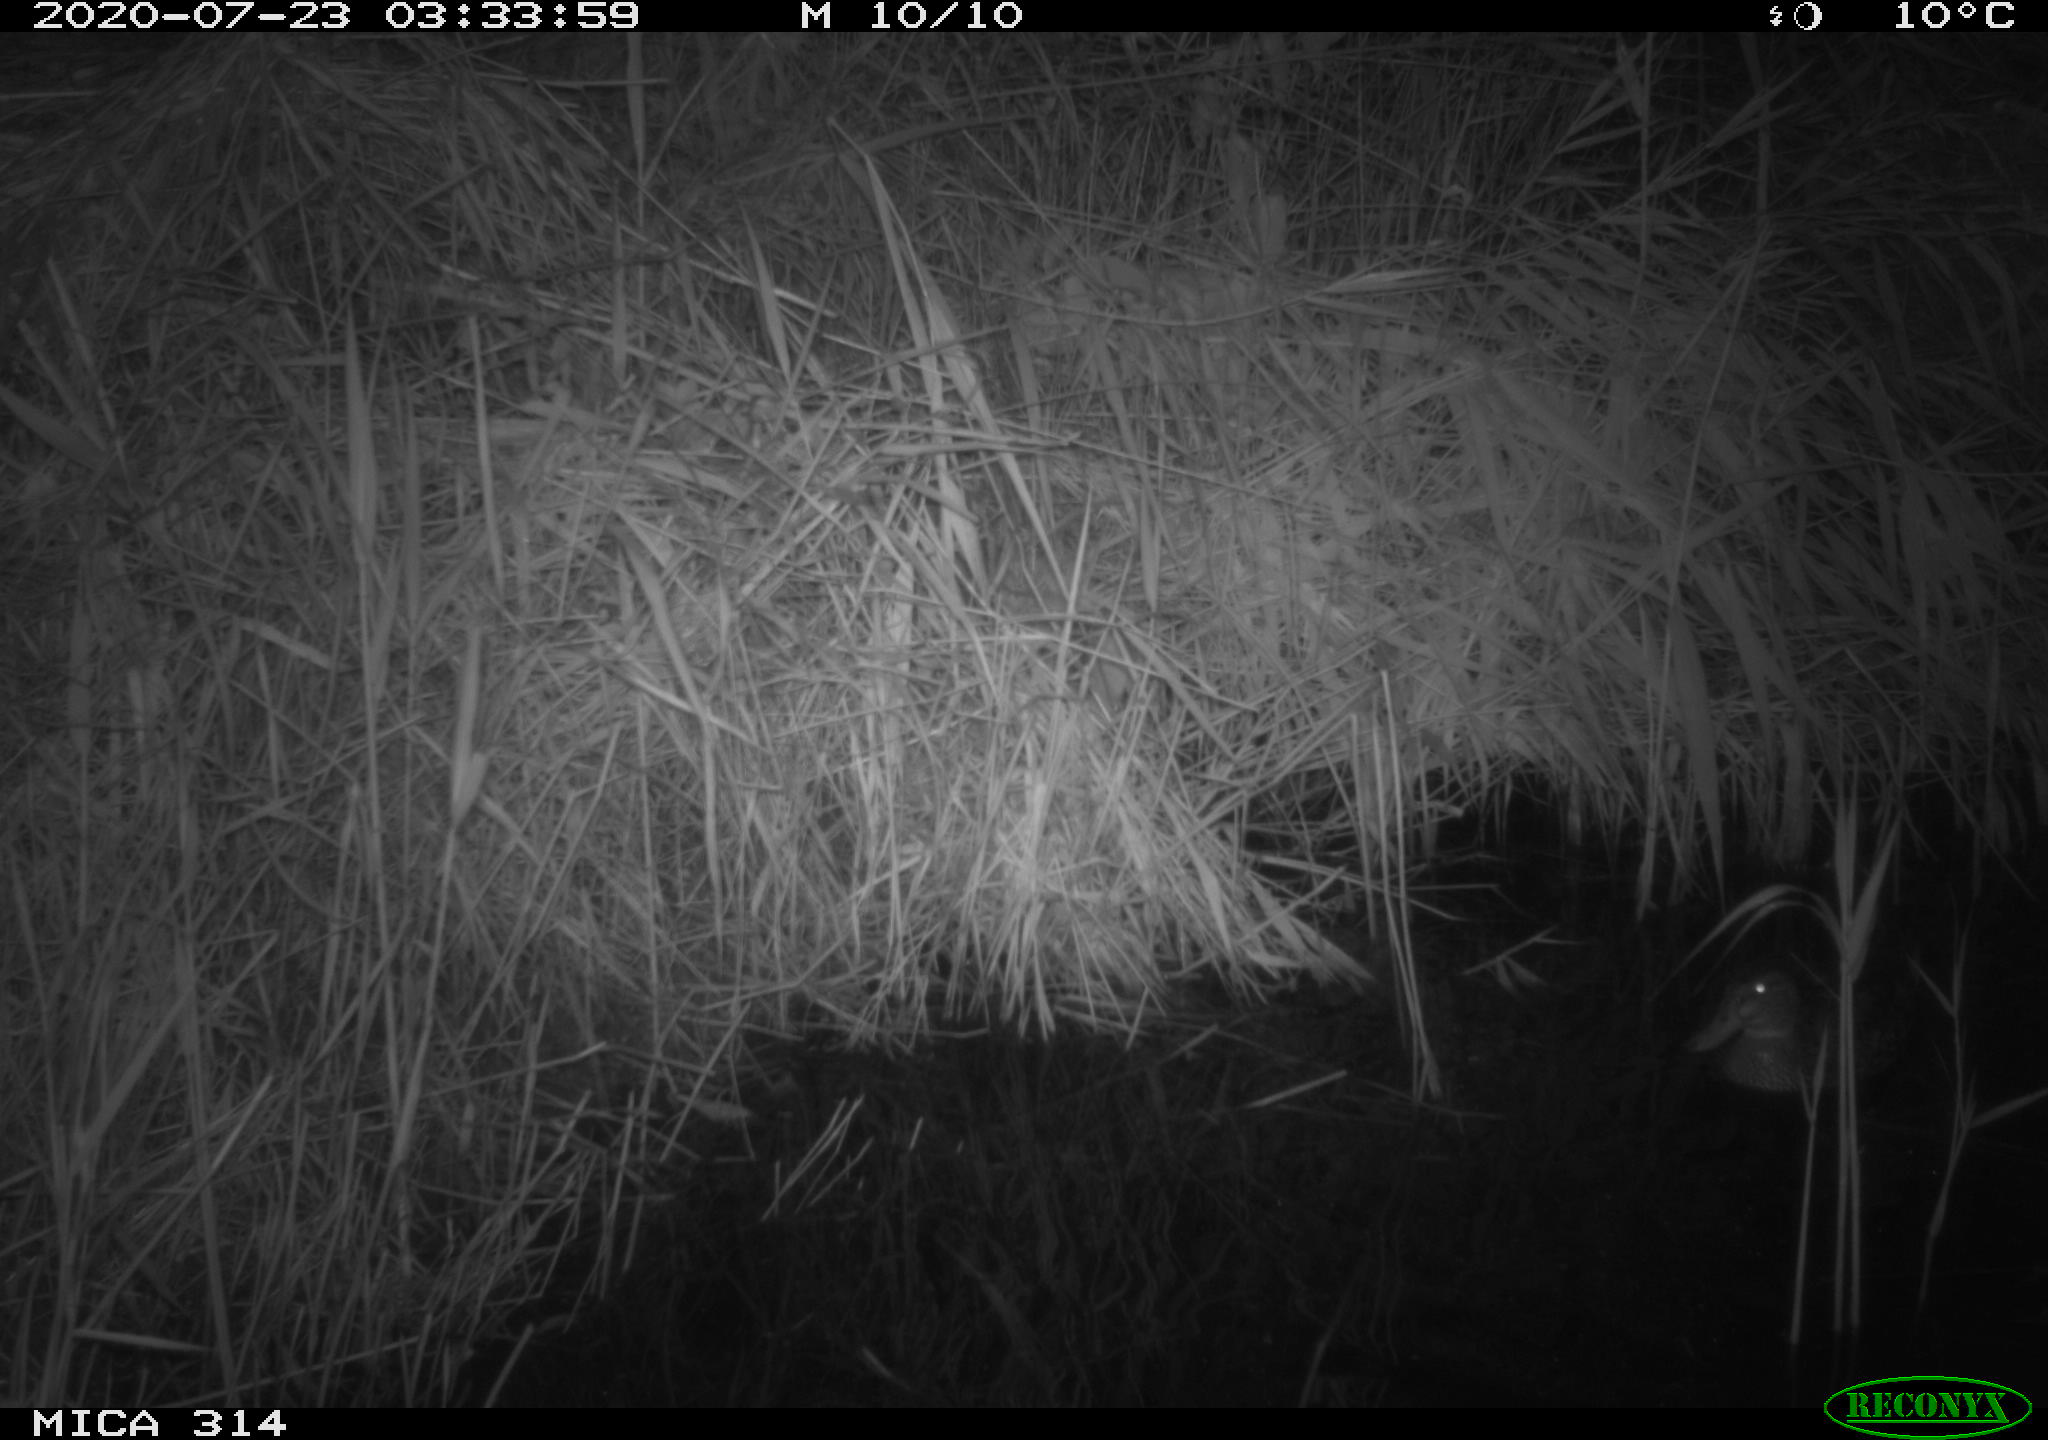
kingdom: Animalia
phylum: Chordata
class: Aves
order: Anseriformes
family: Anatidae
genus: Anas
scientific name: Anas platyrhynchos
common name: Mallard
